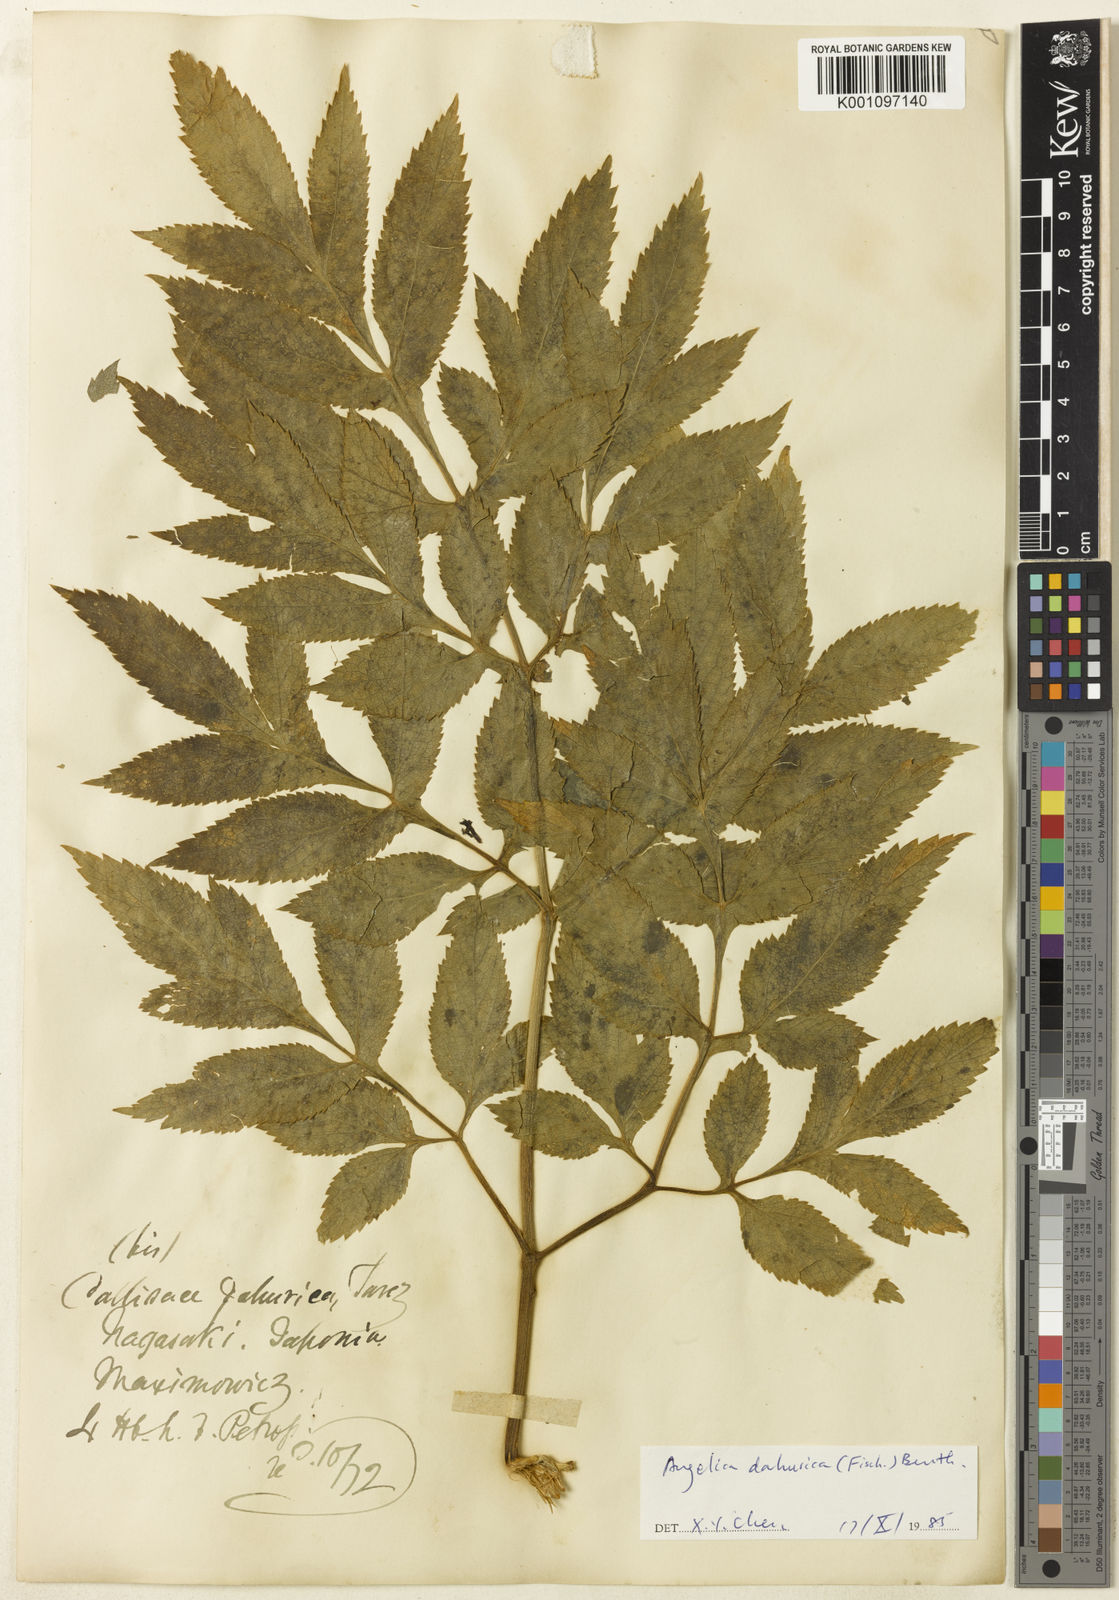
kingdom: Plantae
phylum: Tracheophyta
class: Magnoliopsida
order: Apiales
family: Apiaceae
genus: Angelica
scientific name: Angelica dahurica
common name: Dahurian angelica
